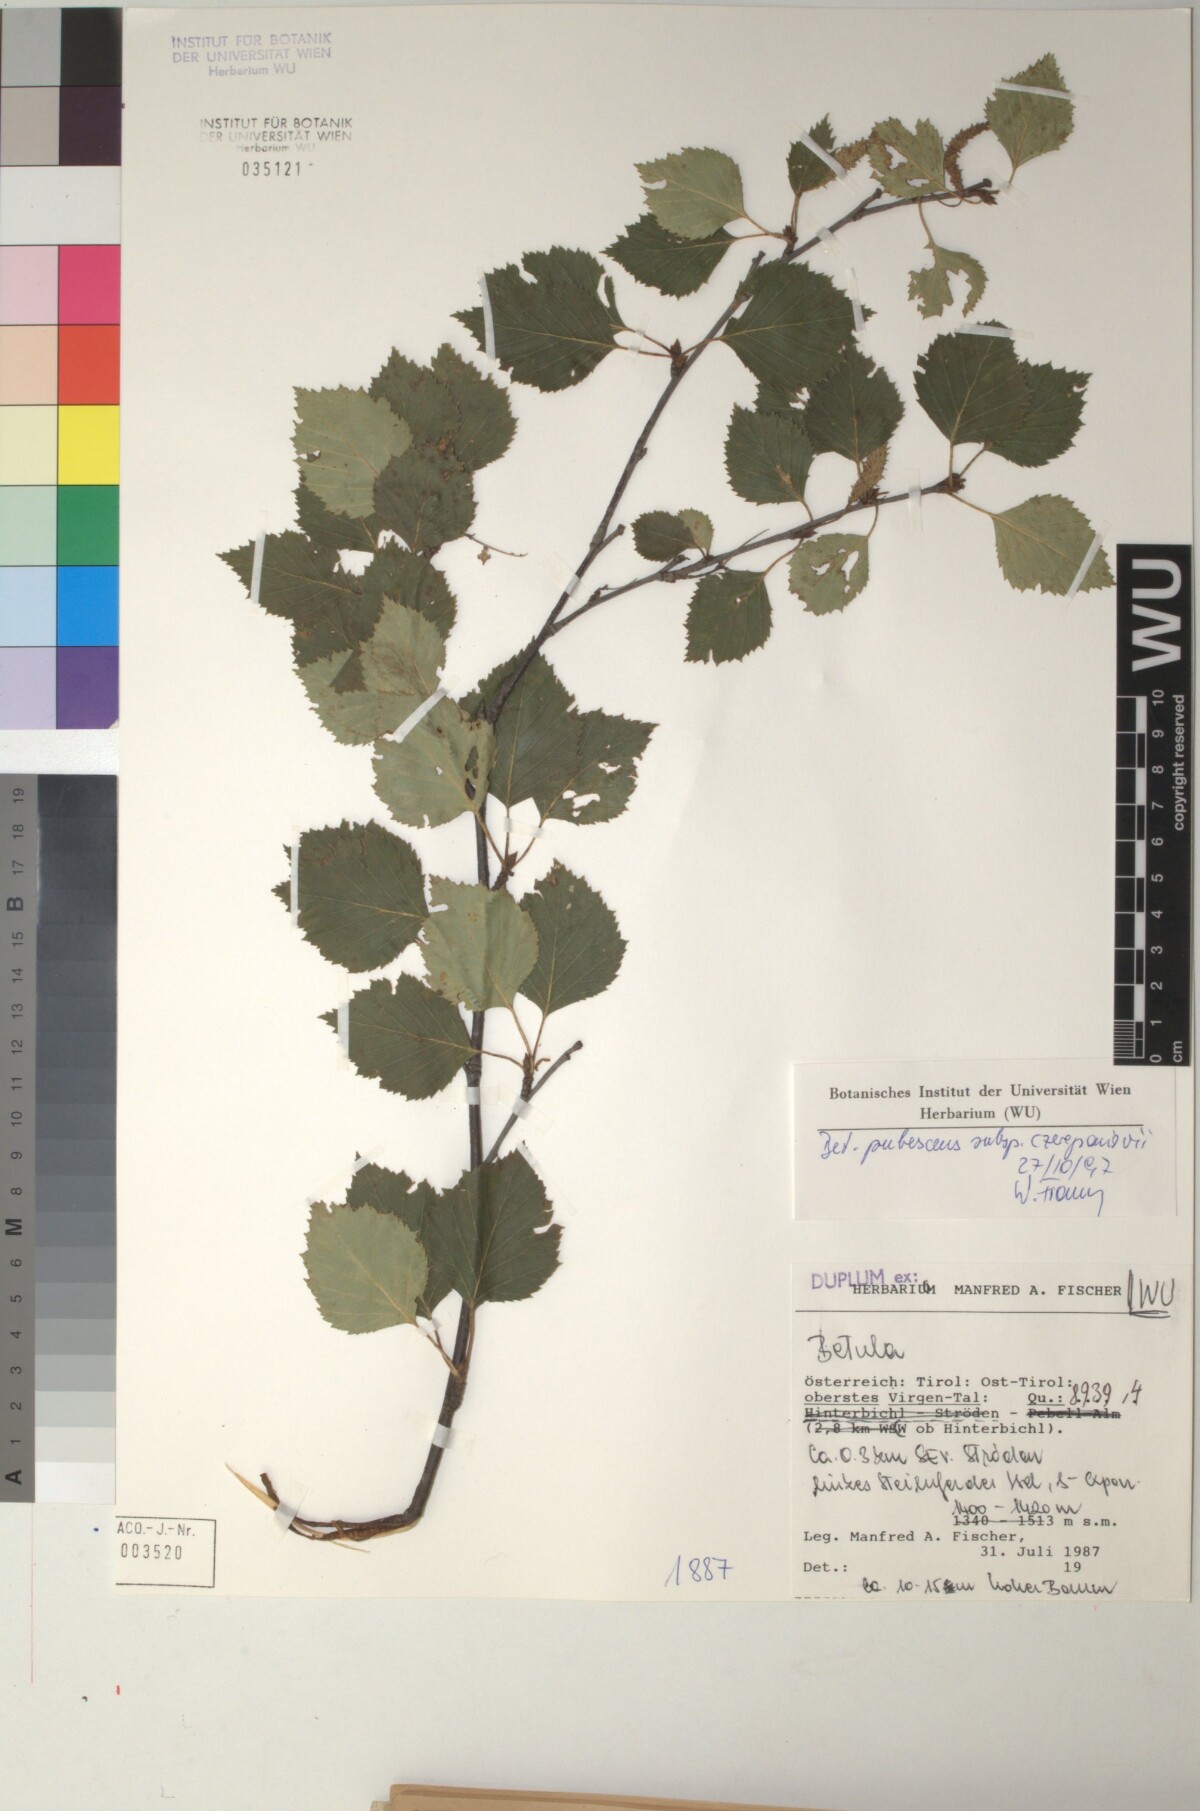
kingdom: Plantae
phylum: Tracheophyta
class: Magnoliopsida
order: Fagales
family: Betulaceae
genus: Betula
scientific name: Betula pubescens
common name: Downy birch
